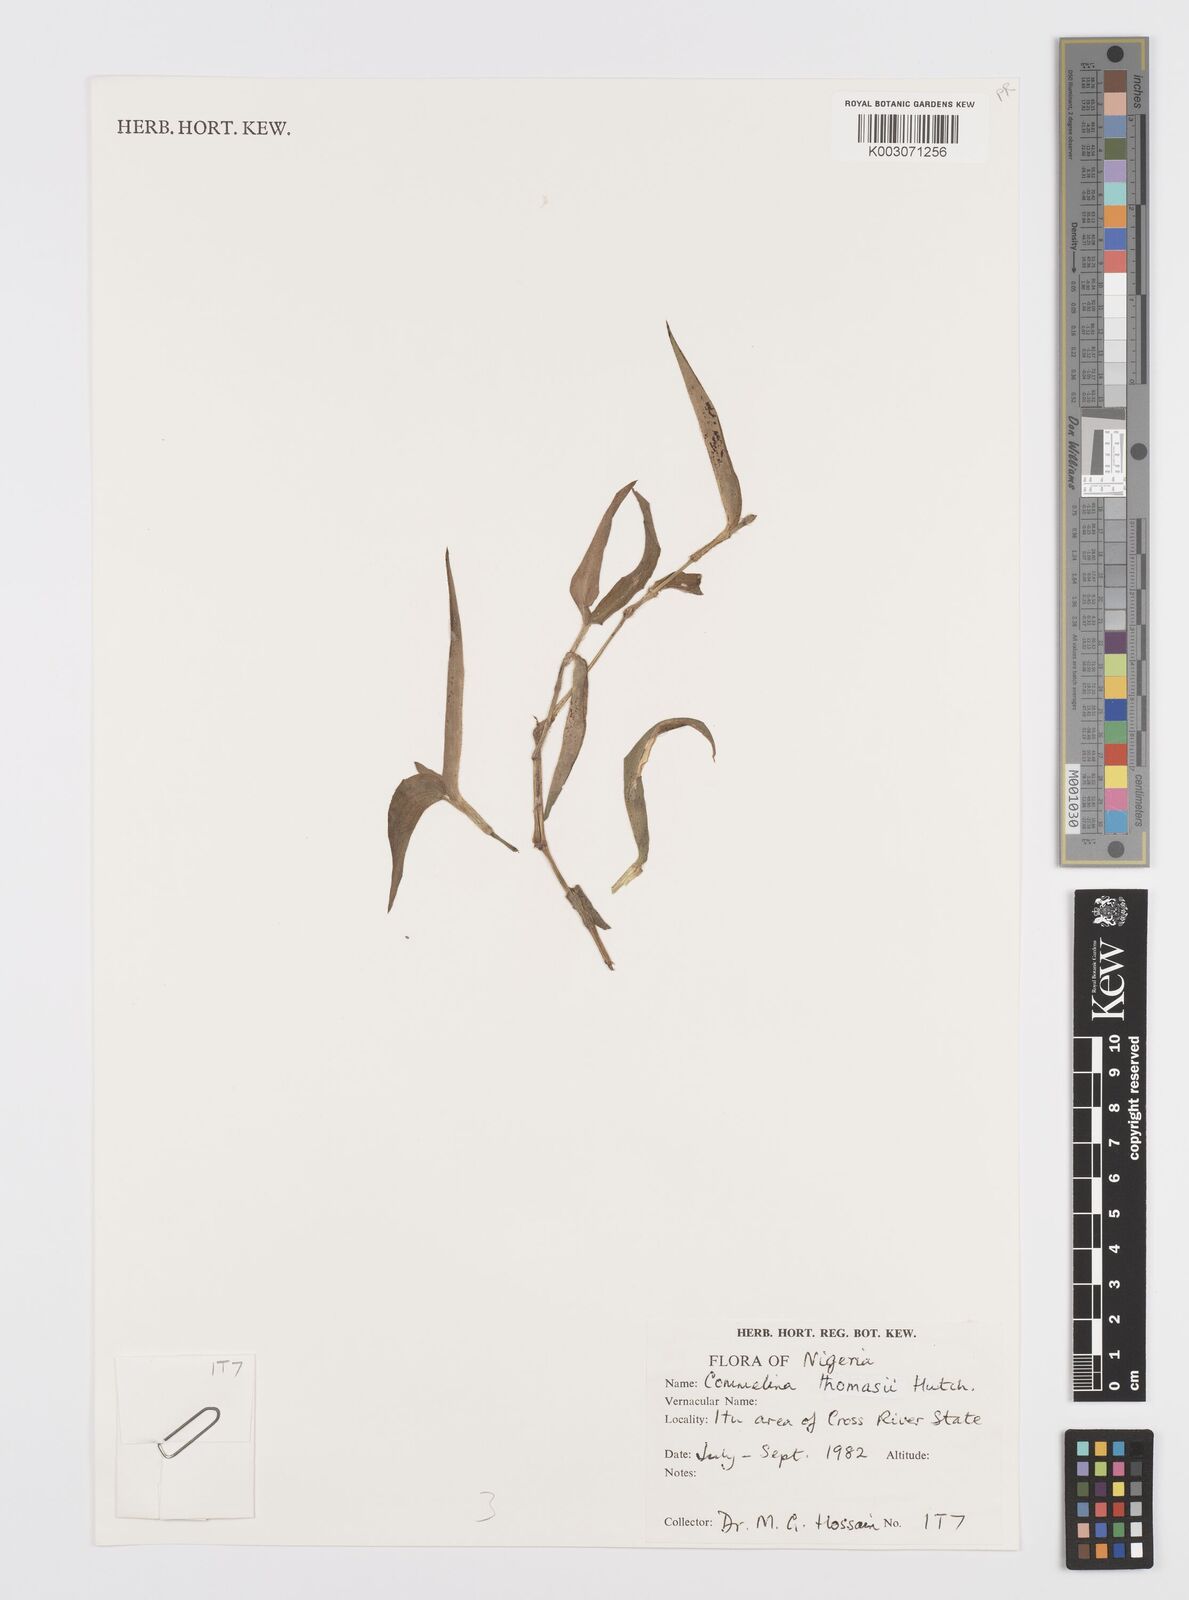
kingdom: Plantae
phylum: Tracheophyta
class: Liliopsida
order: Commelinales
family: Commelinaceae
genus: Commelina
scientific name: Commelina acutispatha
